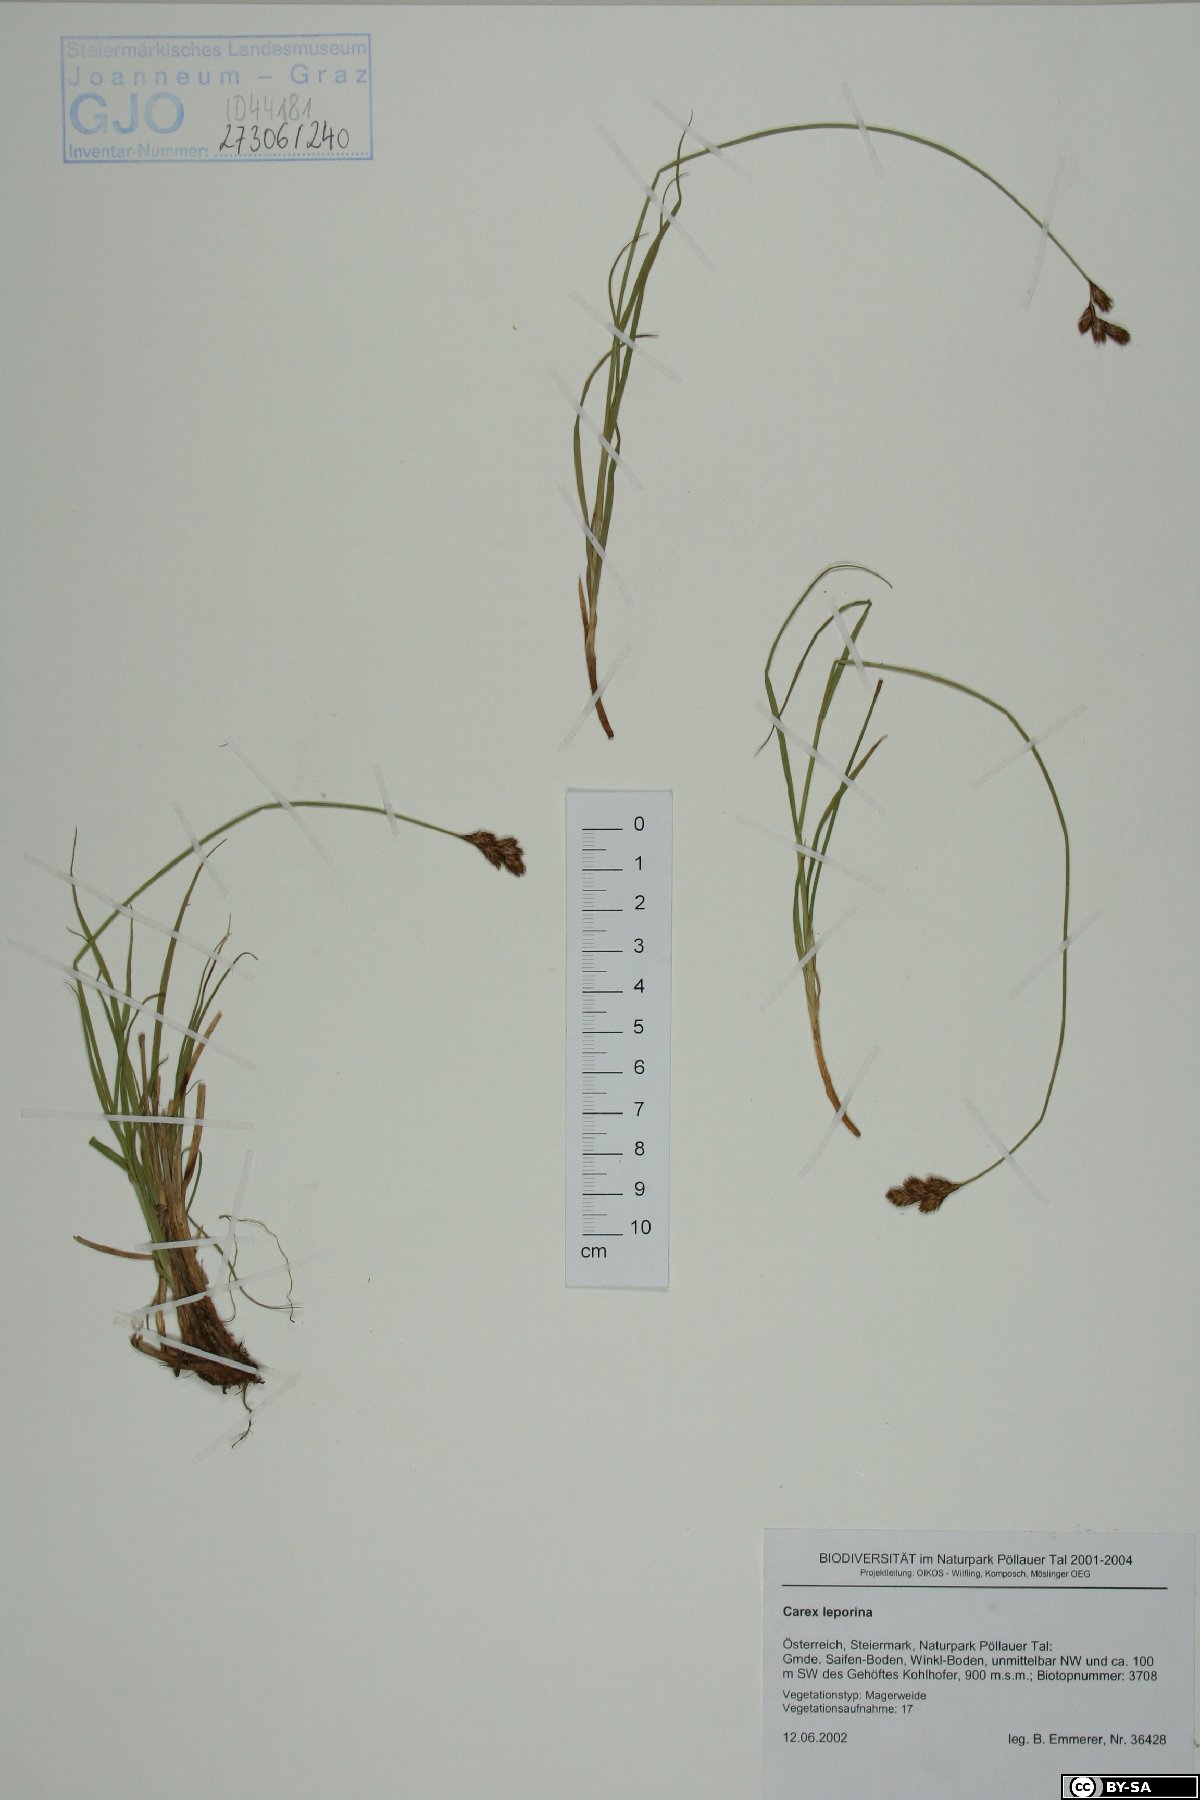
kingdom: Plantae
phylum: Tracheophyta
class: Liliopsida
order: Poales
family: Cyperaceae
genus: Carex
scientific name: Carex leporina
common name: Oval sedge
